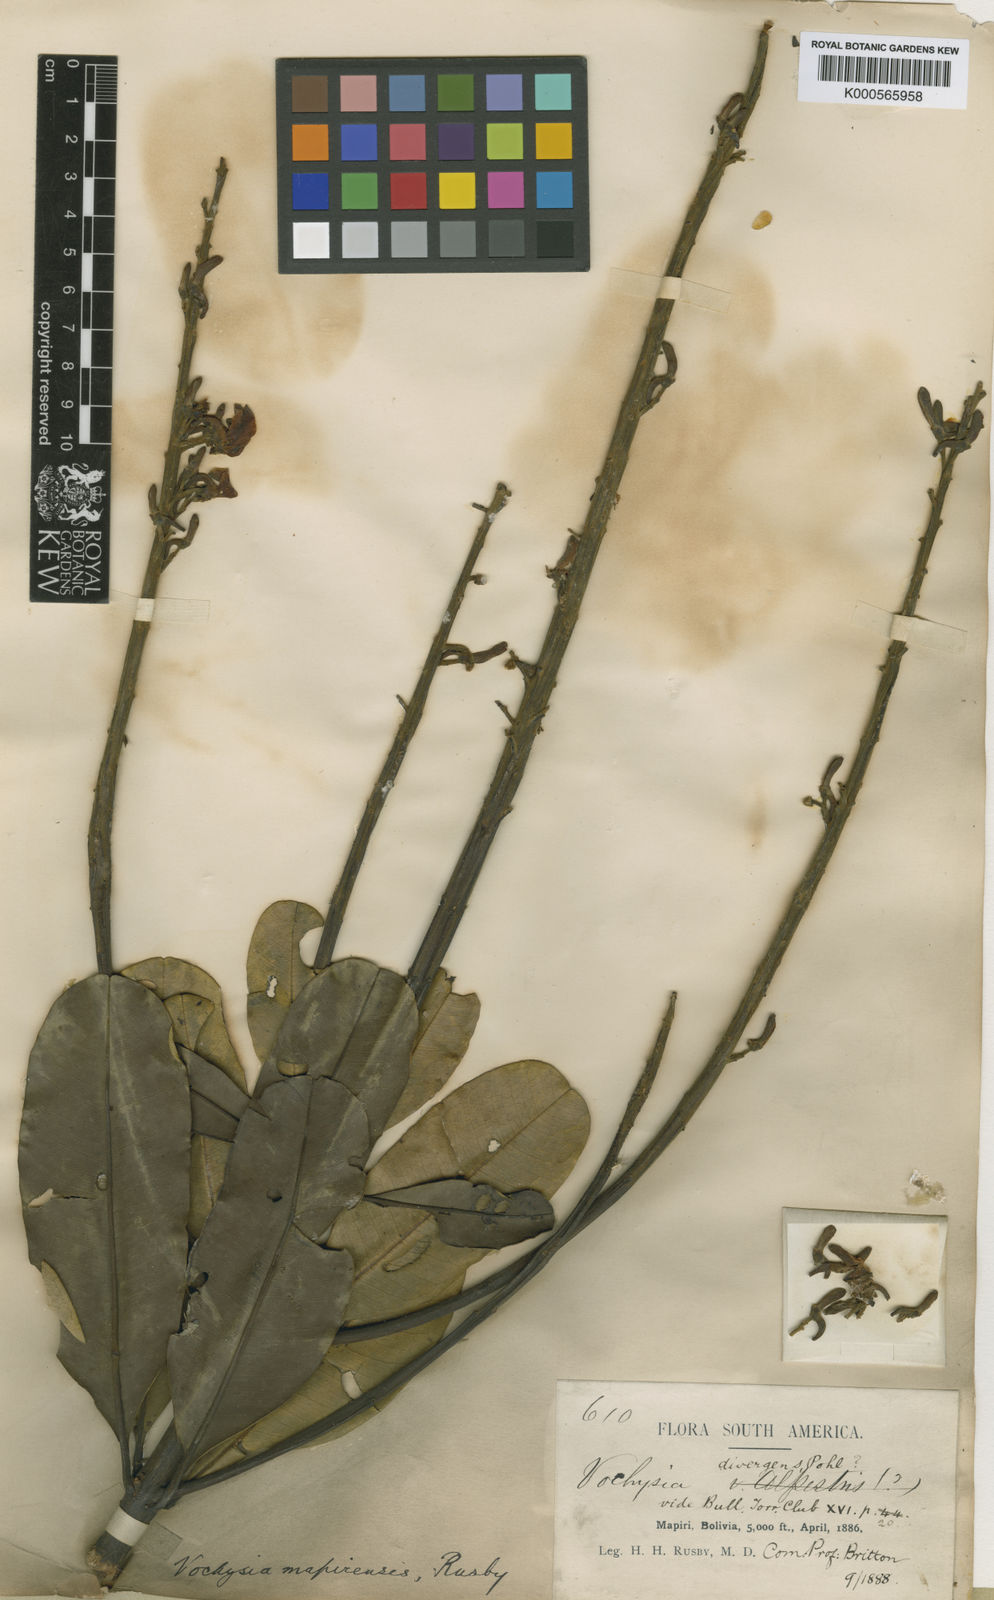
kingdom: Plantae
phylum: Tracheophyta
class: Magnoliopsida
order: Myrtales
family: Vochysiaceae
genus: Vochysia
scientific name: Vochysia mapirensis
